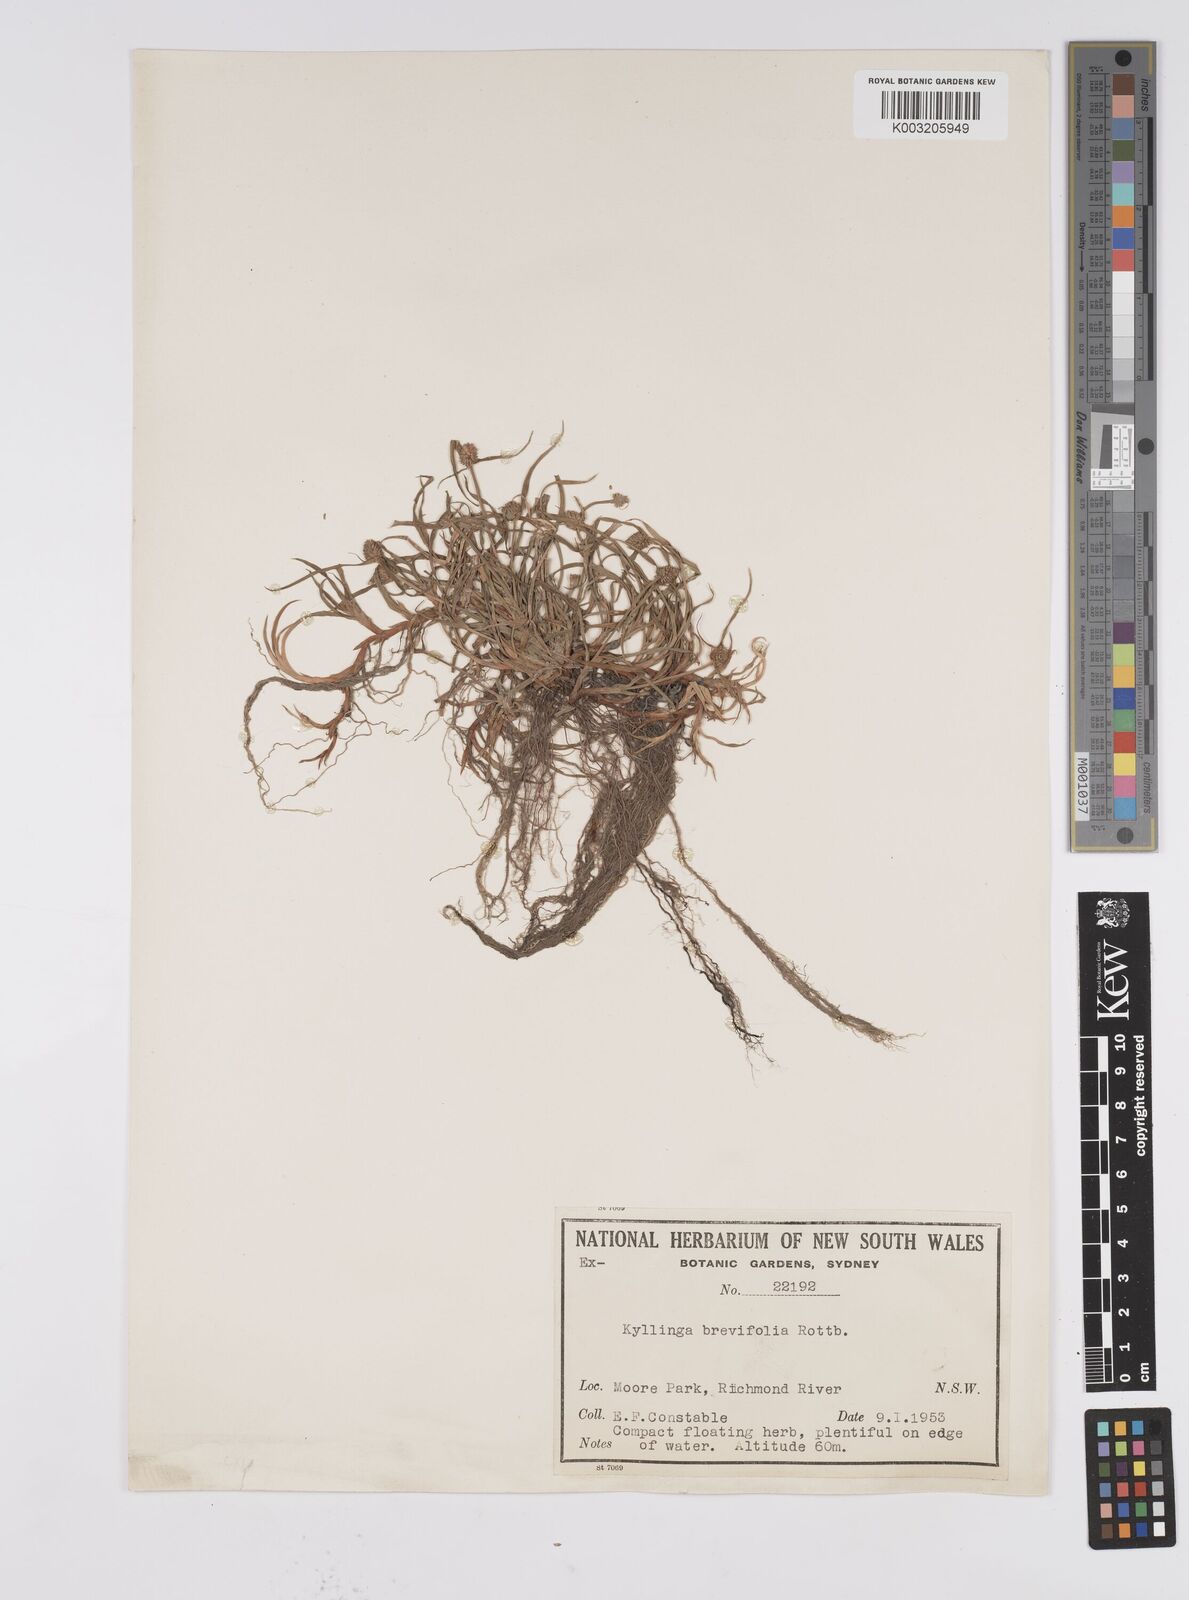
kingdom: Plantae
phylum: Tracheophyta
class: Liliopsida
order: Poales
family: Cyperaceae
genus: Cyperus
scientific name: Cyperus brevifolius
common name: Globe kyllinga
